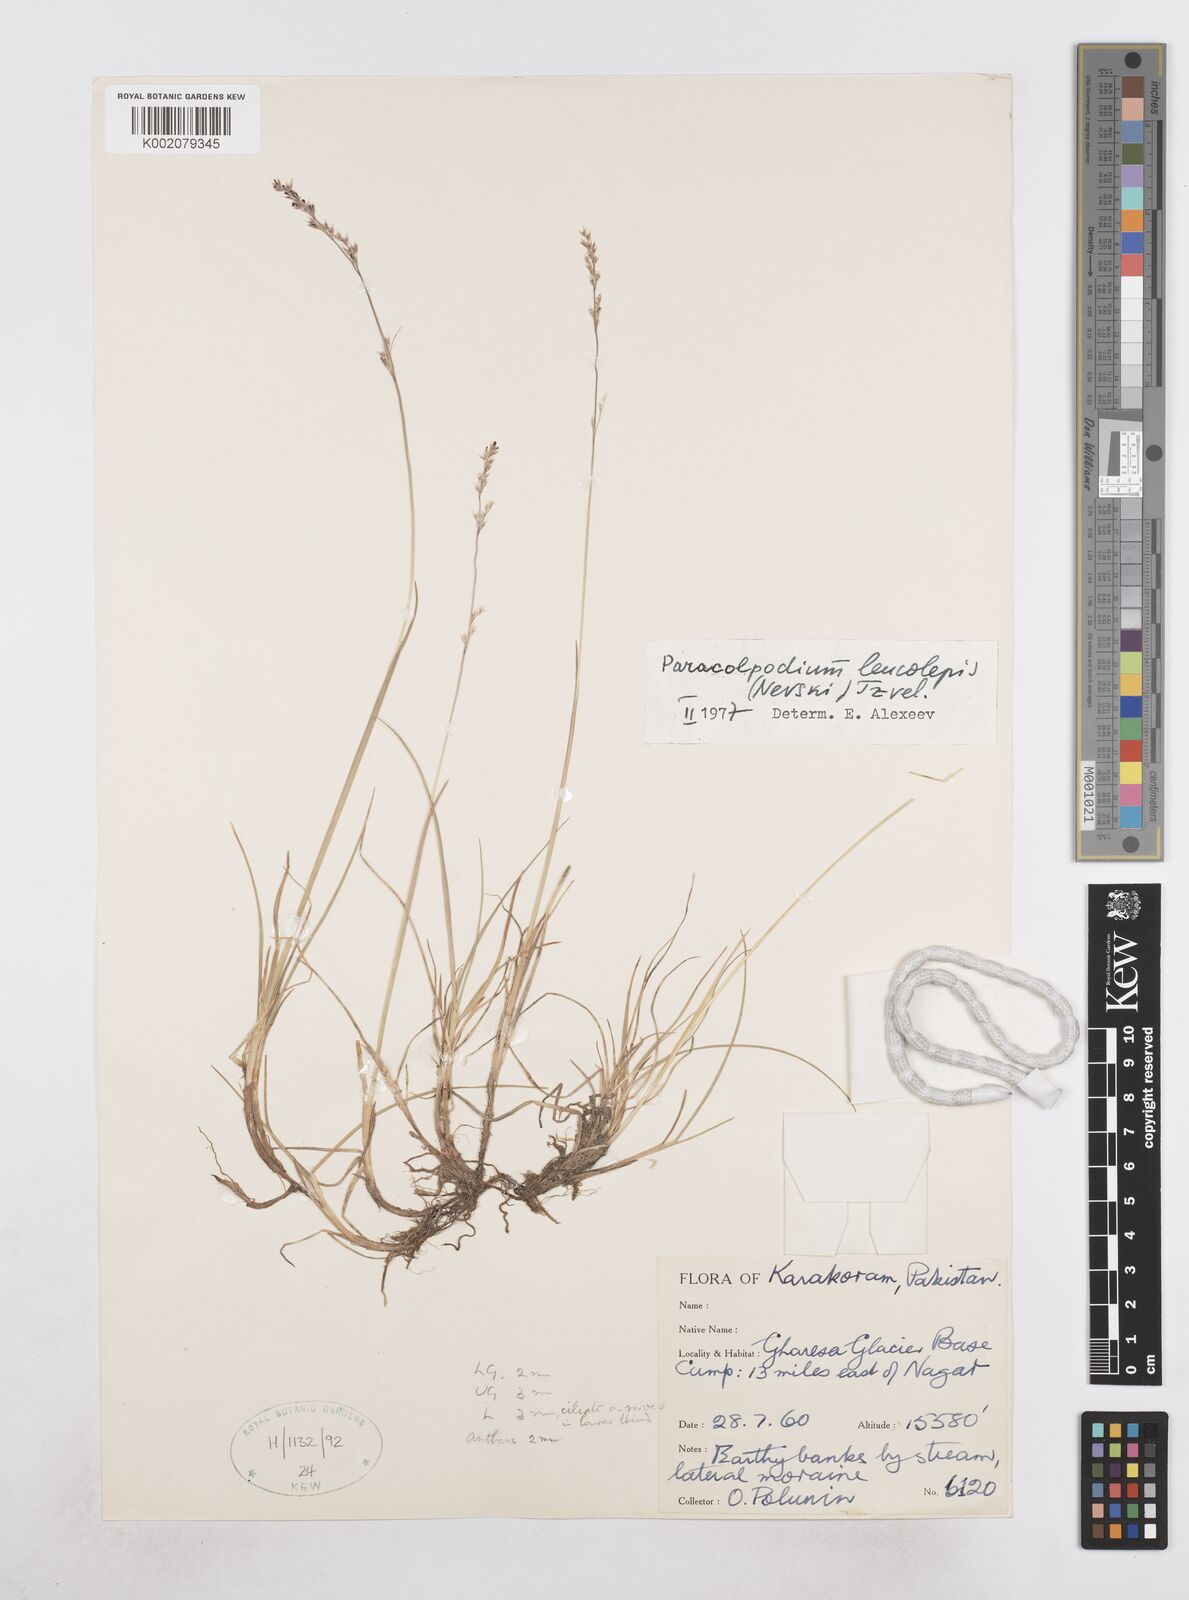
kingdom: Plantae
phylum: Tracheophyta
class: Liliopsida
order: Poales
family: Poaceae
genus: Paracolpodium
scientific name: Paracolpodium altaicum
